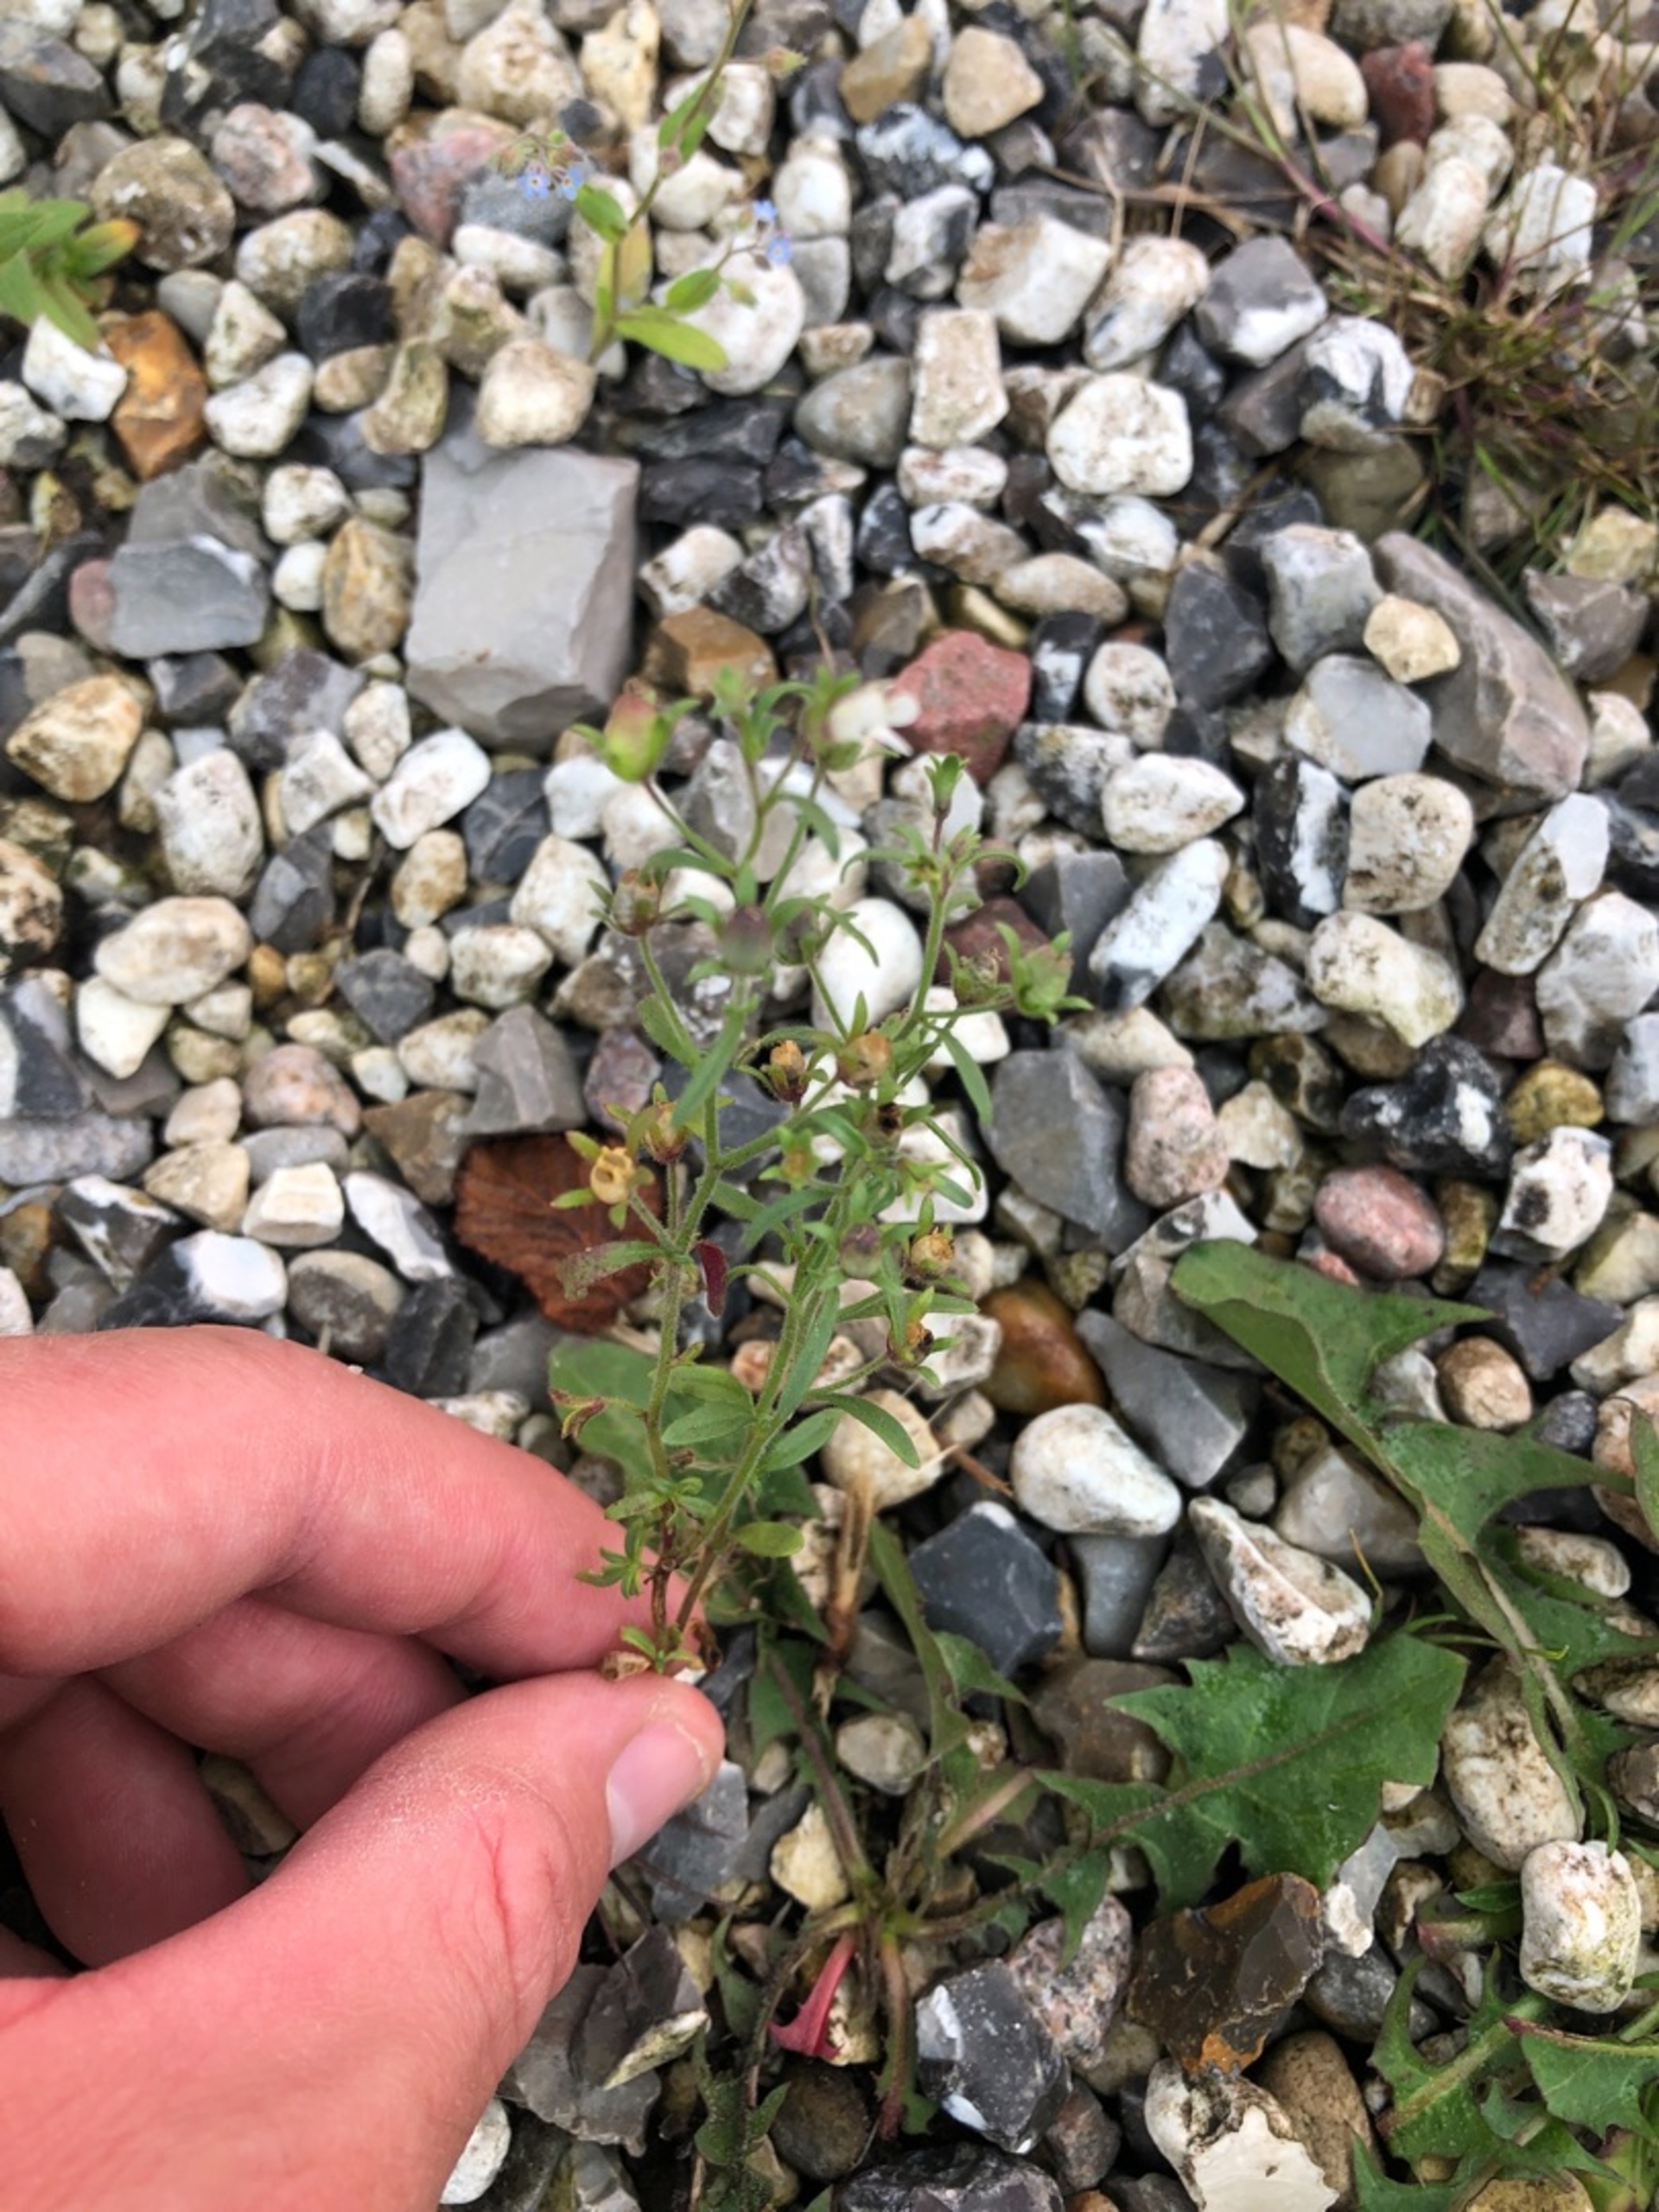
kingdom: Plantae
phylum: Tracheophyta
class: Magnoliopsida
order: Lamiales
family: Plantaginaceae
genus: Chaenorhinum
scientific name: Chaenorhinum minus
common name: Liden torskemund
